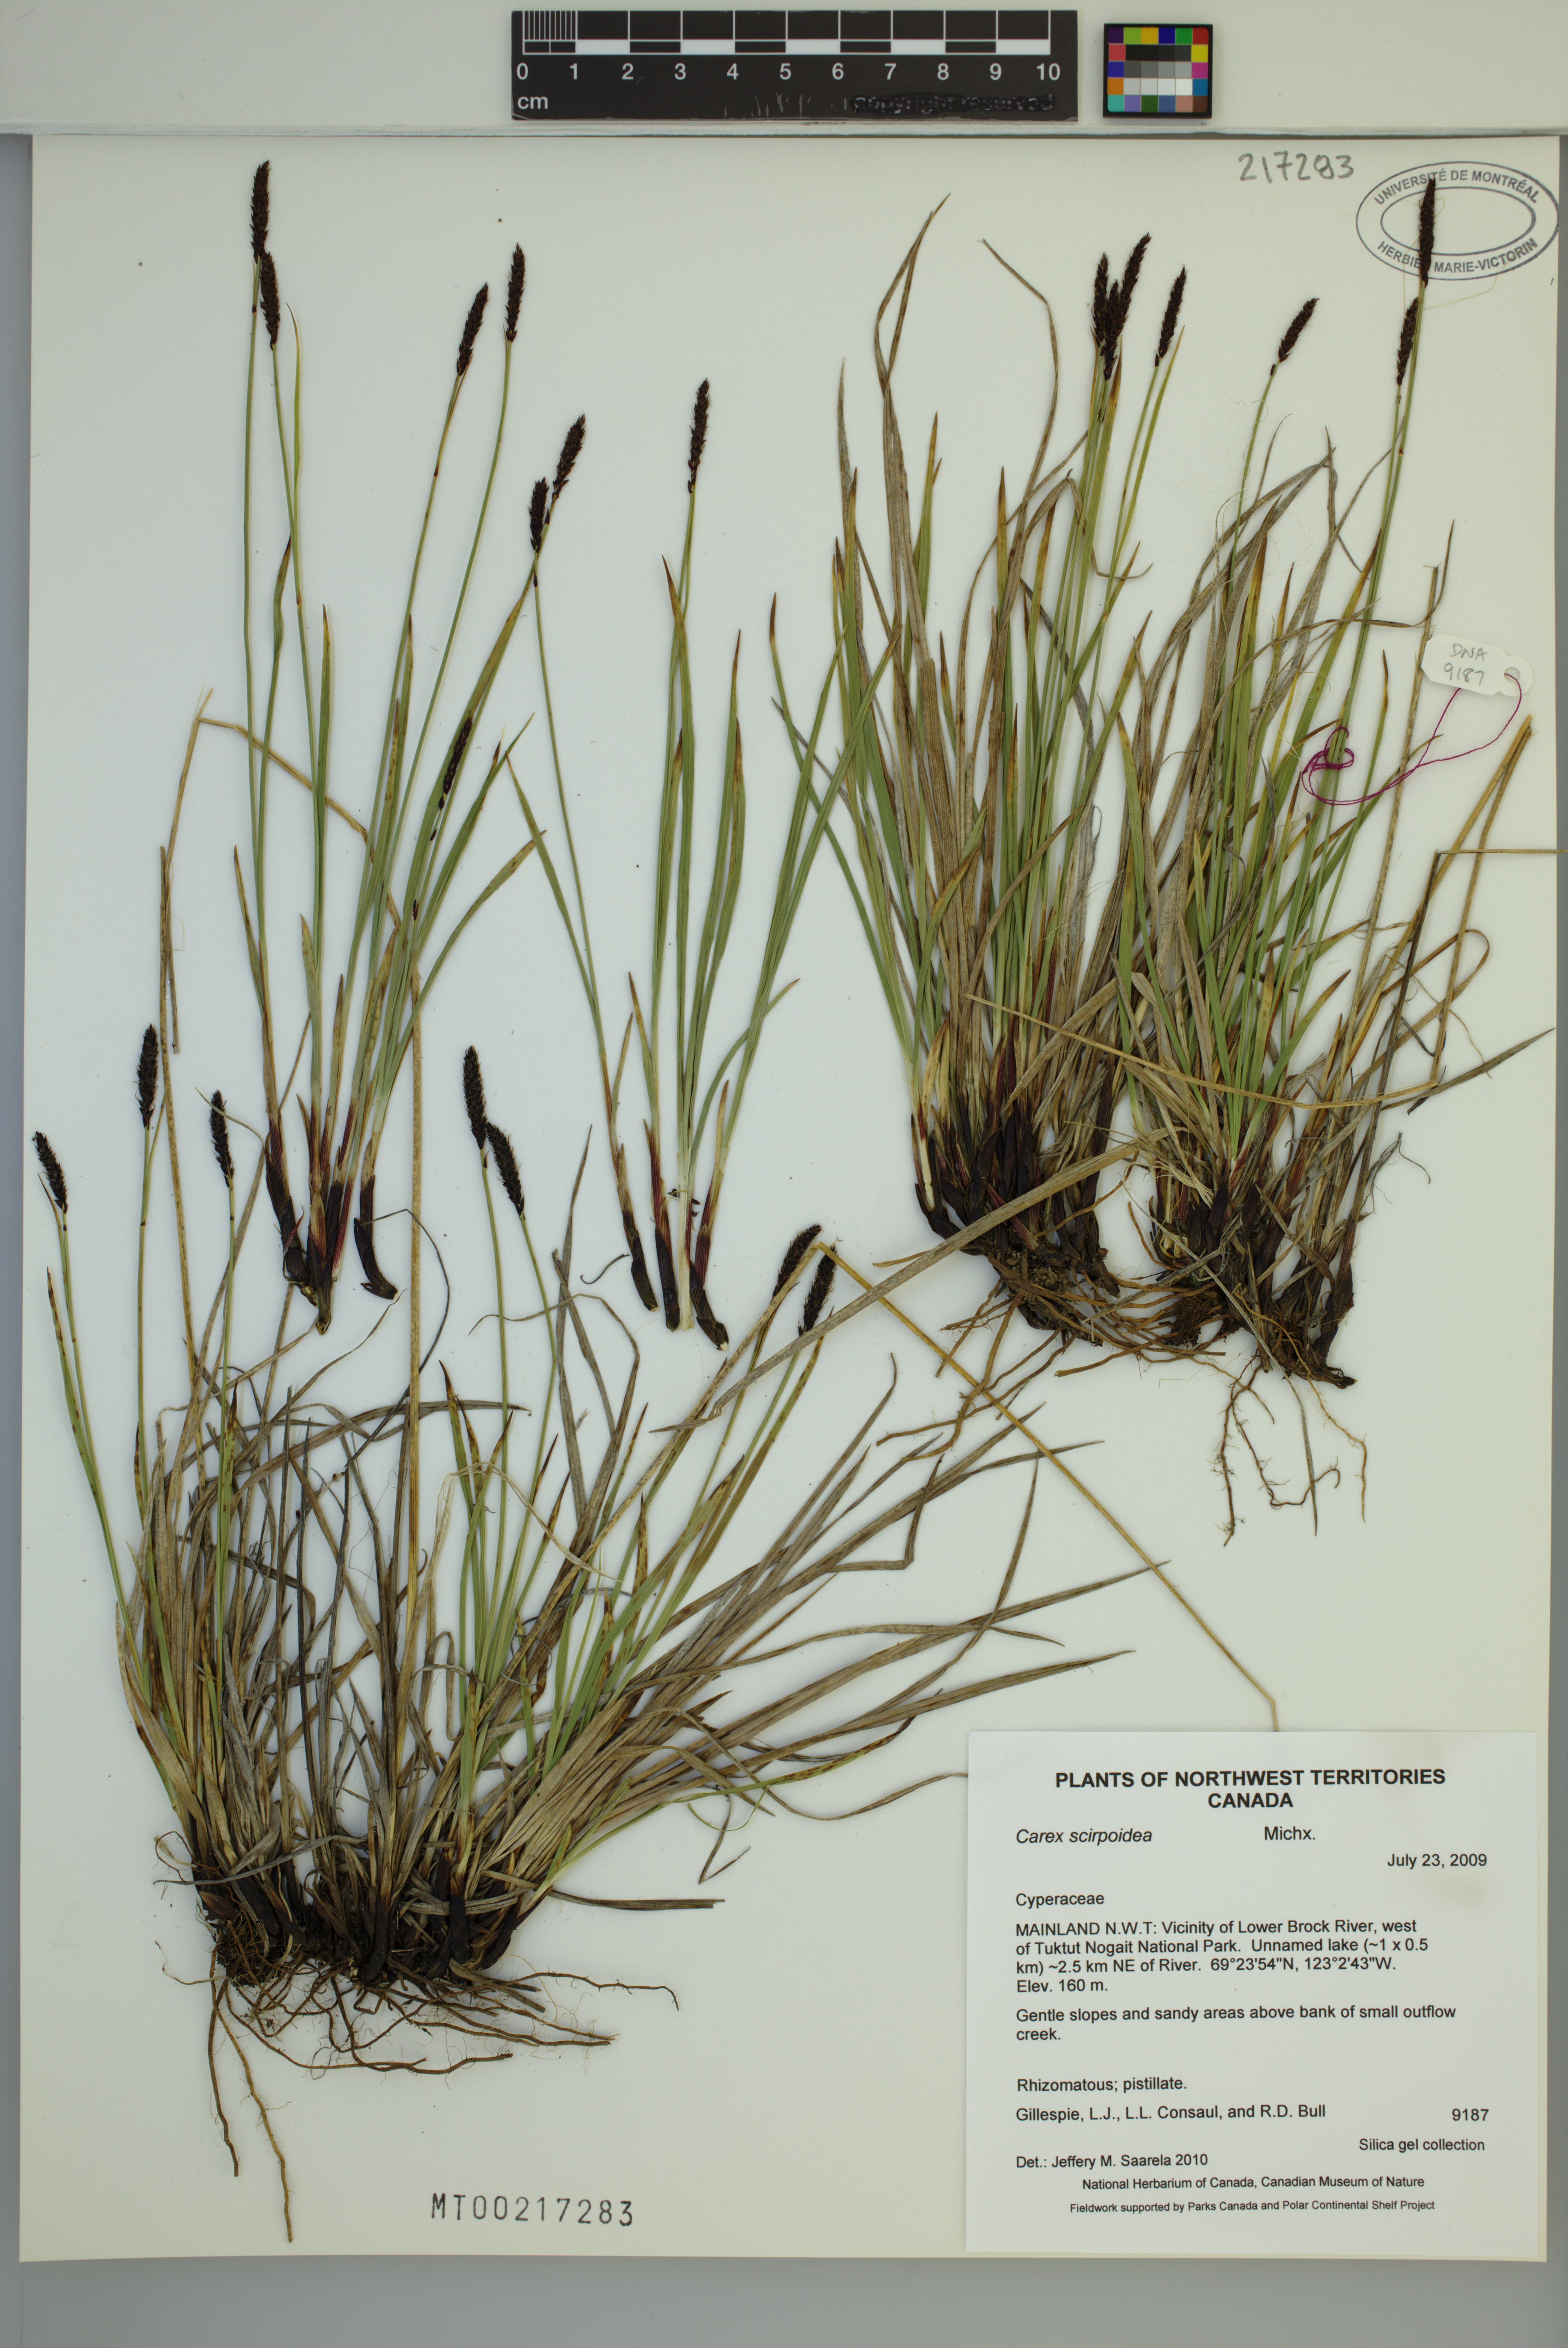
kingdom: Plantae
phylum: Tracheophyta
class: Liliopsida
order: Poales
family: Cyperaceae
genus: Carex
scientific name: Carex scirpoidea
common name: Canada single-spike sedge
